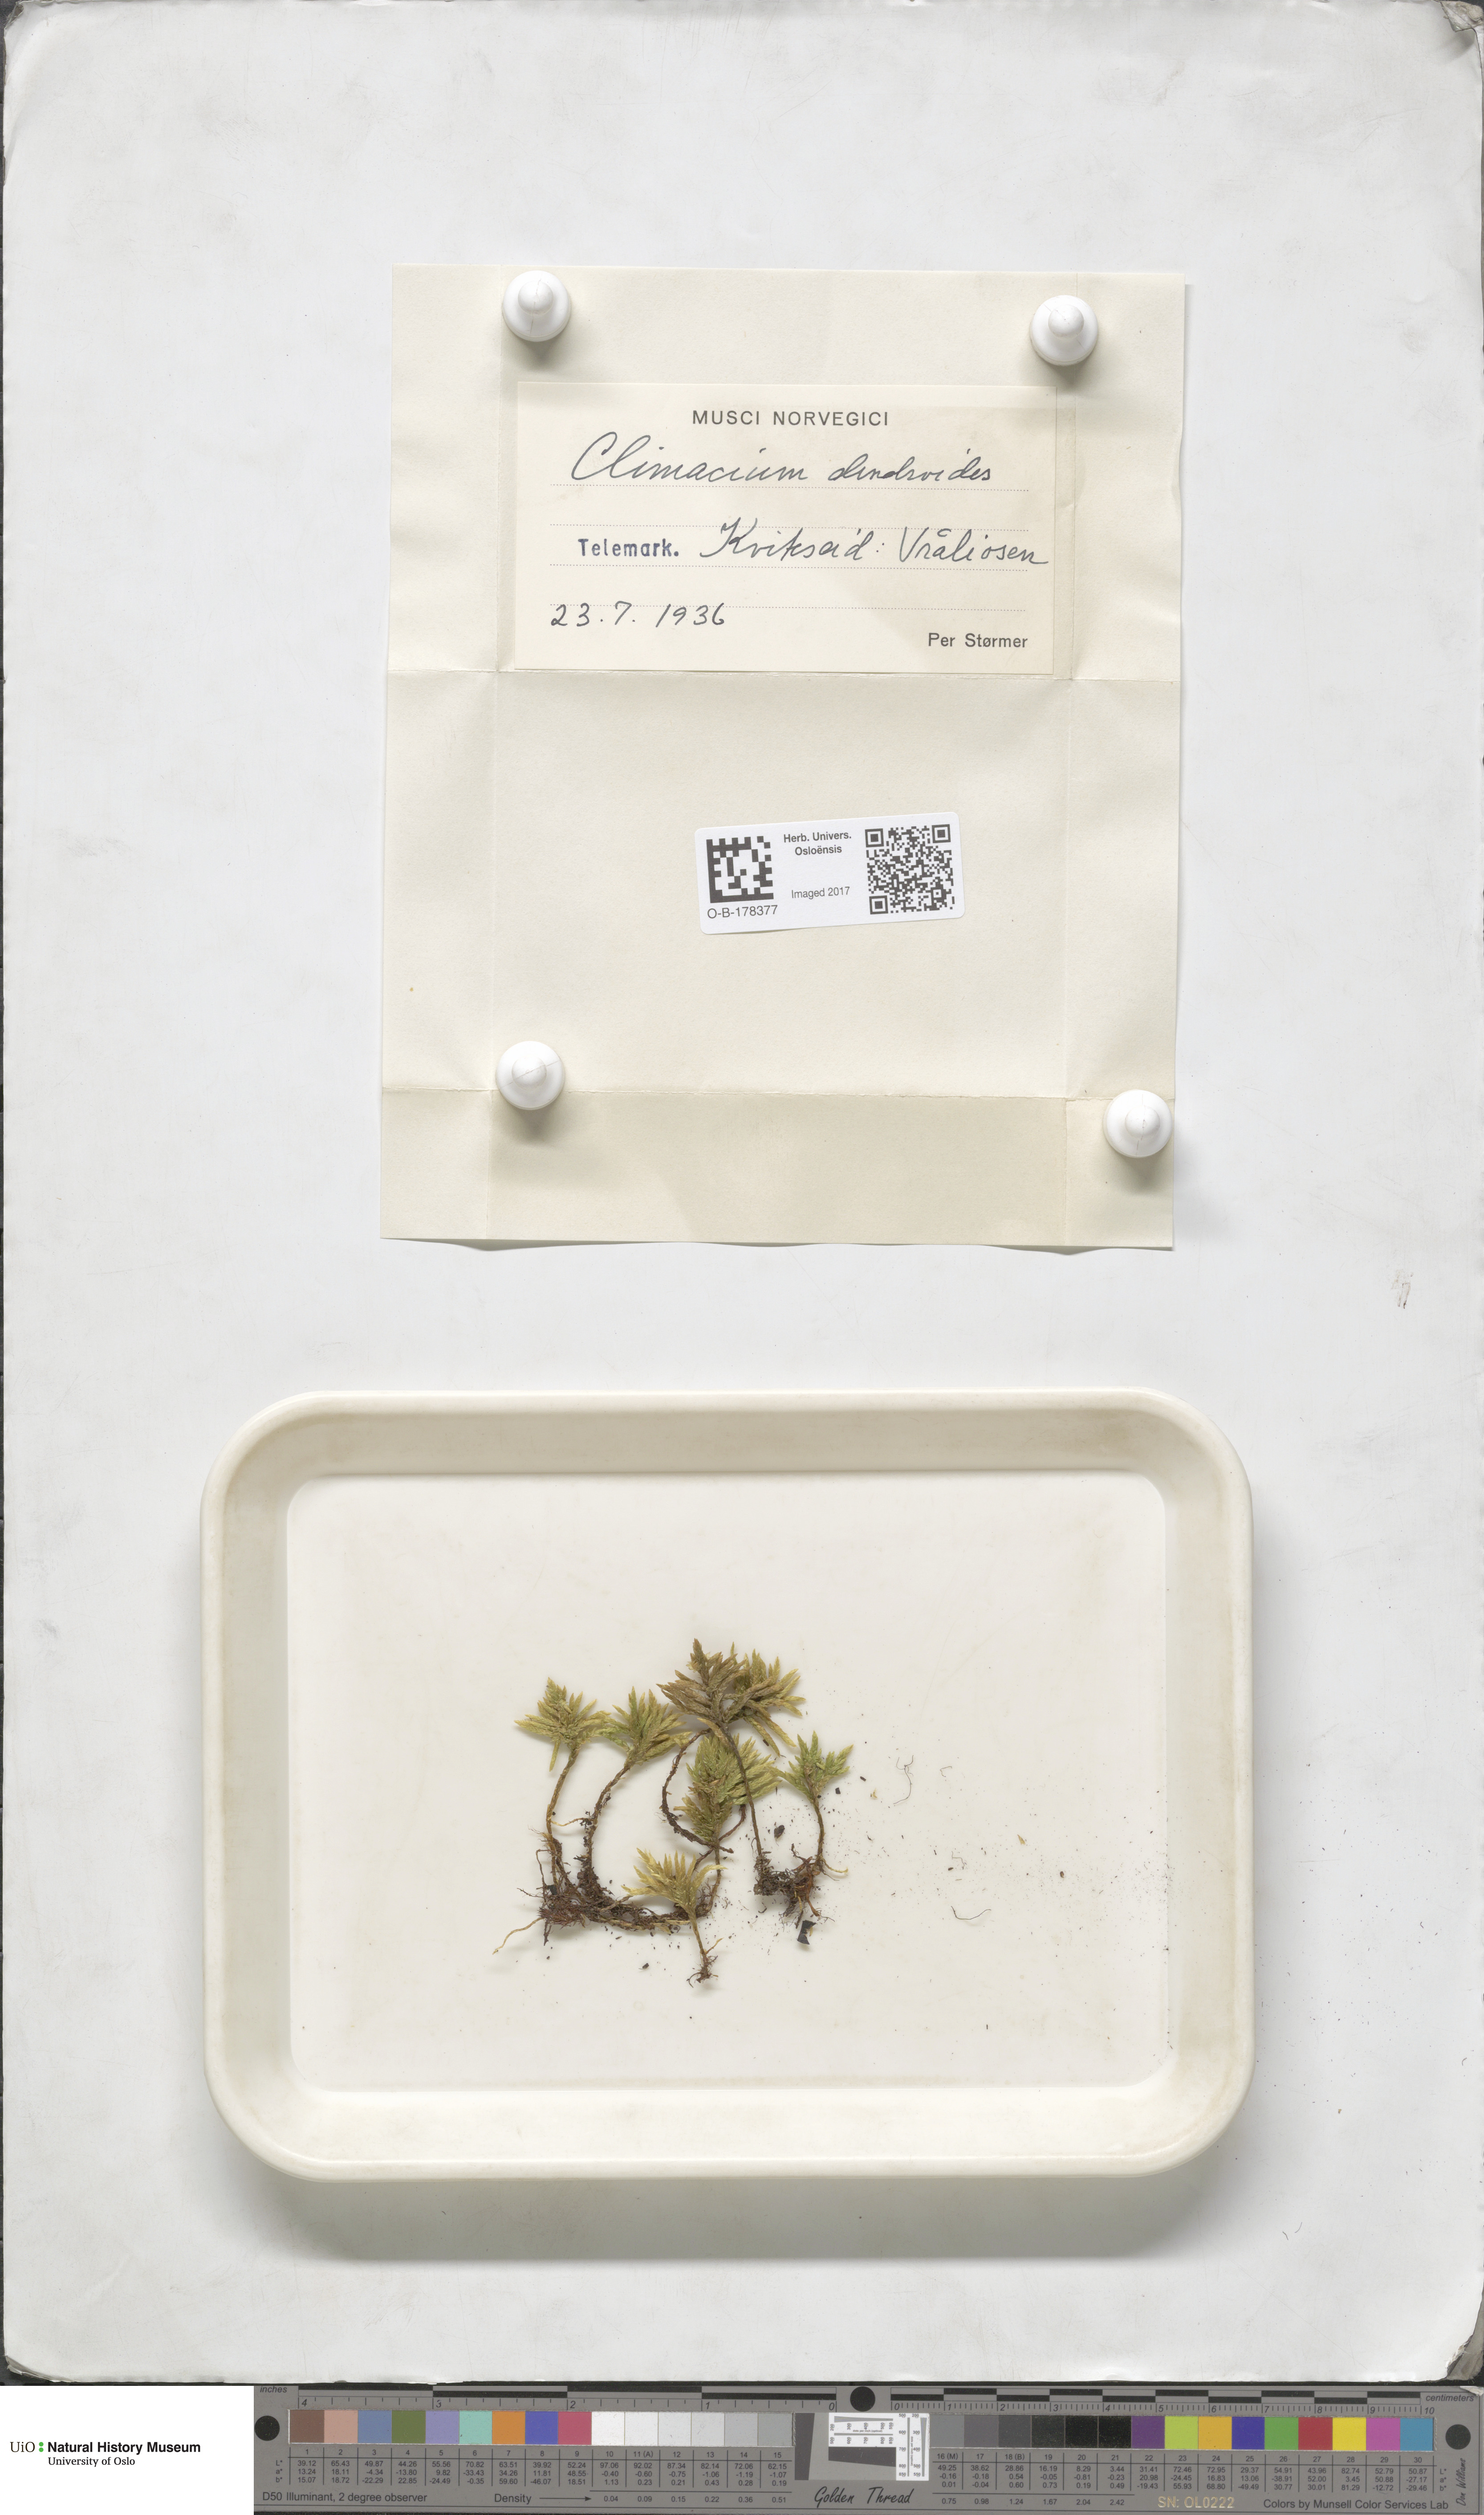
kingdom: Plantae
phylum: Bryophyta
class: Bryopsida
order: Hypnales
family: Climaciaceae
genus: Climacium
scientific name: Climacium dendroides
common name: Northern tree moss
